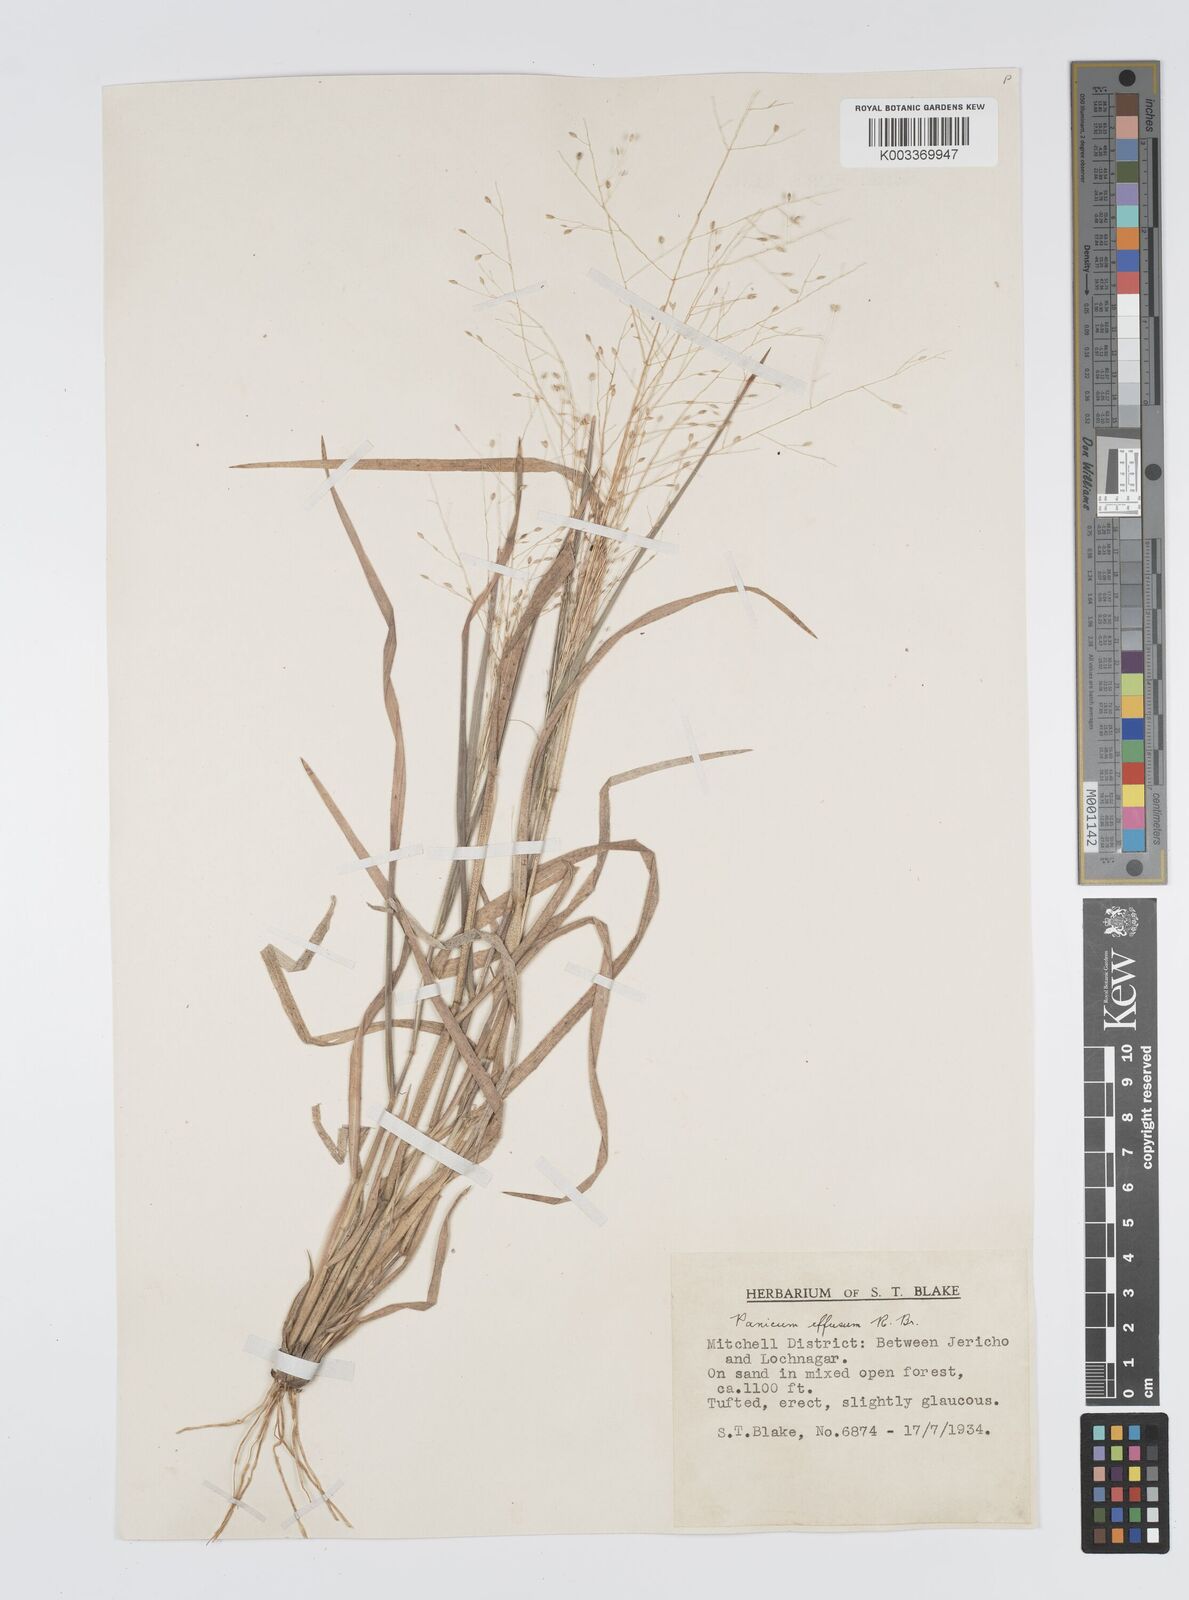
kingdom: Plantae
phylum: Tracheophyta
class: Liliopsida
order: Poales
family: Poaceae
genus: Panicum
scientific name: Panicum effusum
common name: Hairy panic grass
